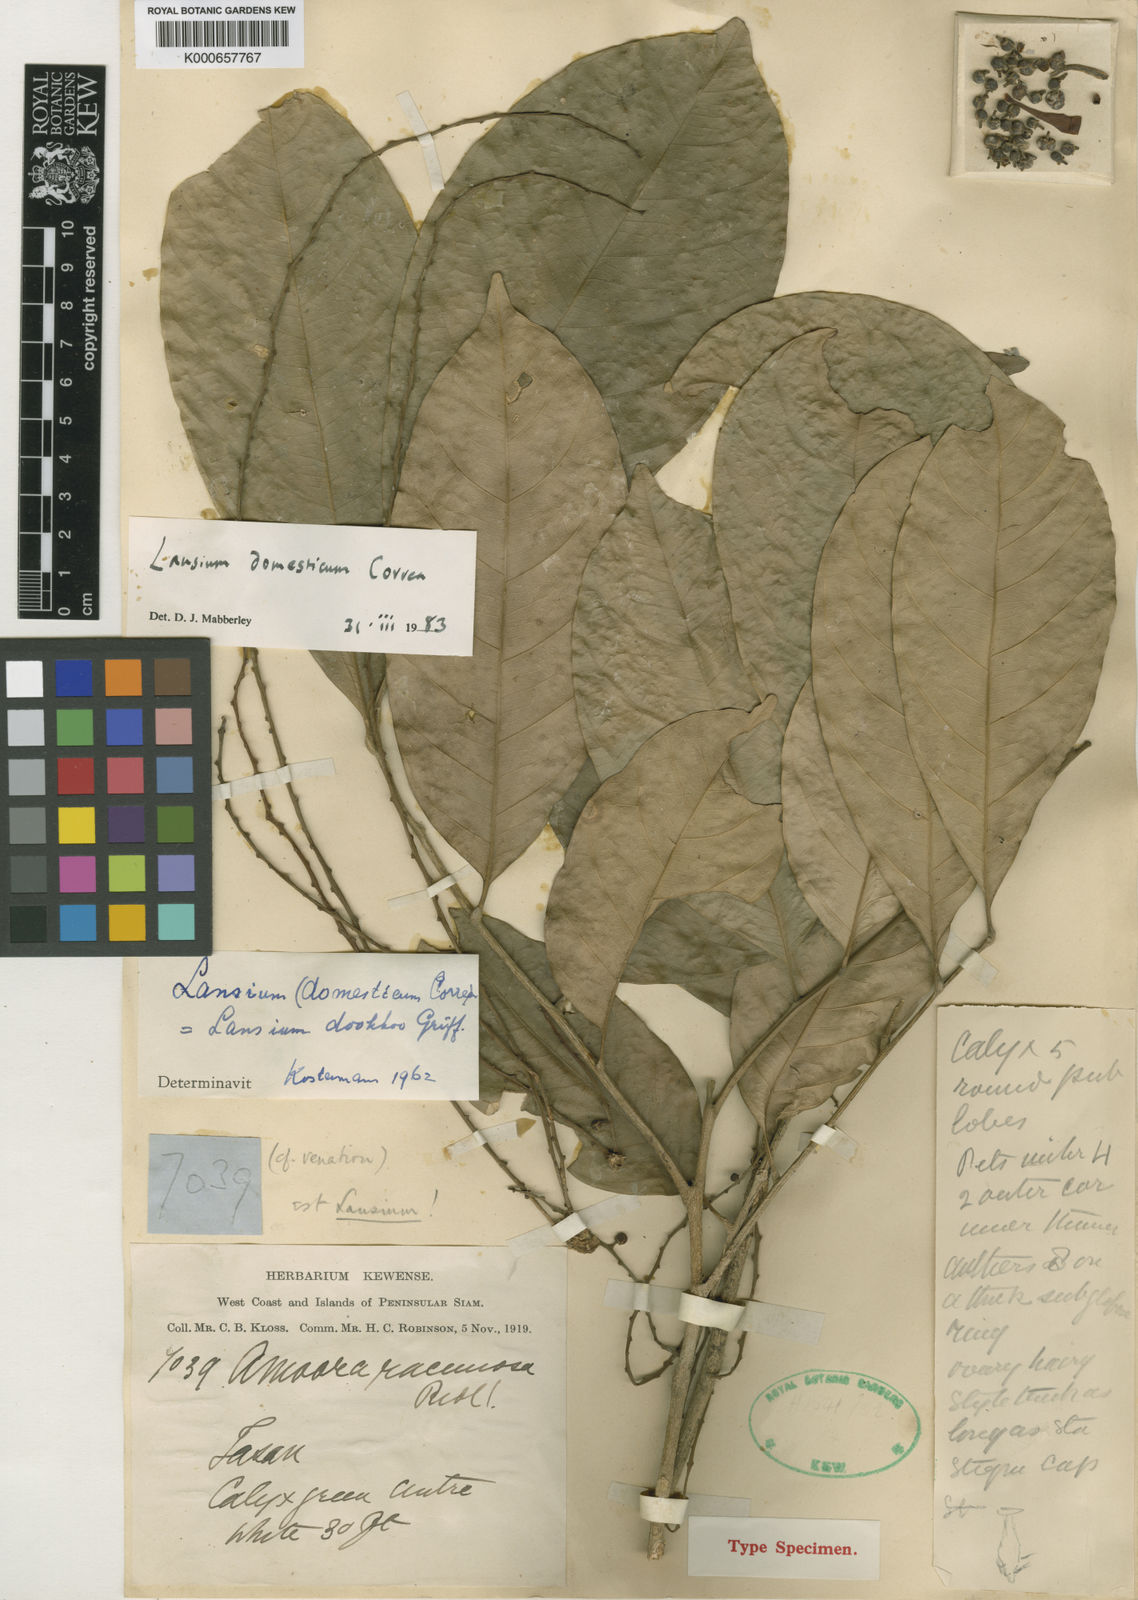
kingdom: Plantae
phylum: Tracheophyta
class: Magnoliopsida
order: Sapindales
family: Meliaceae
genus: Lansium
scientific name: Lansium
